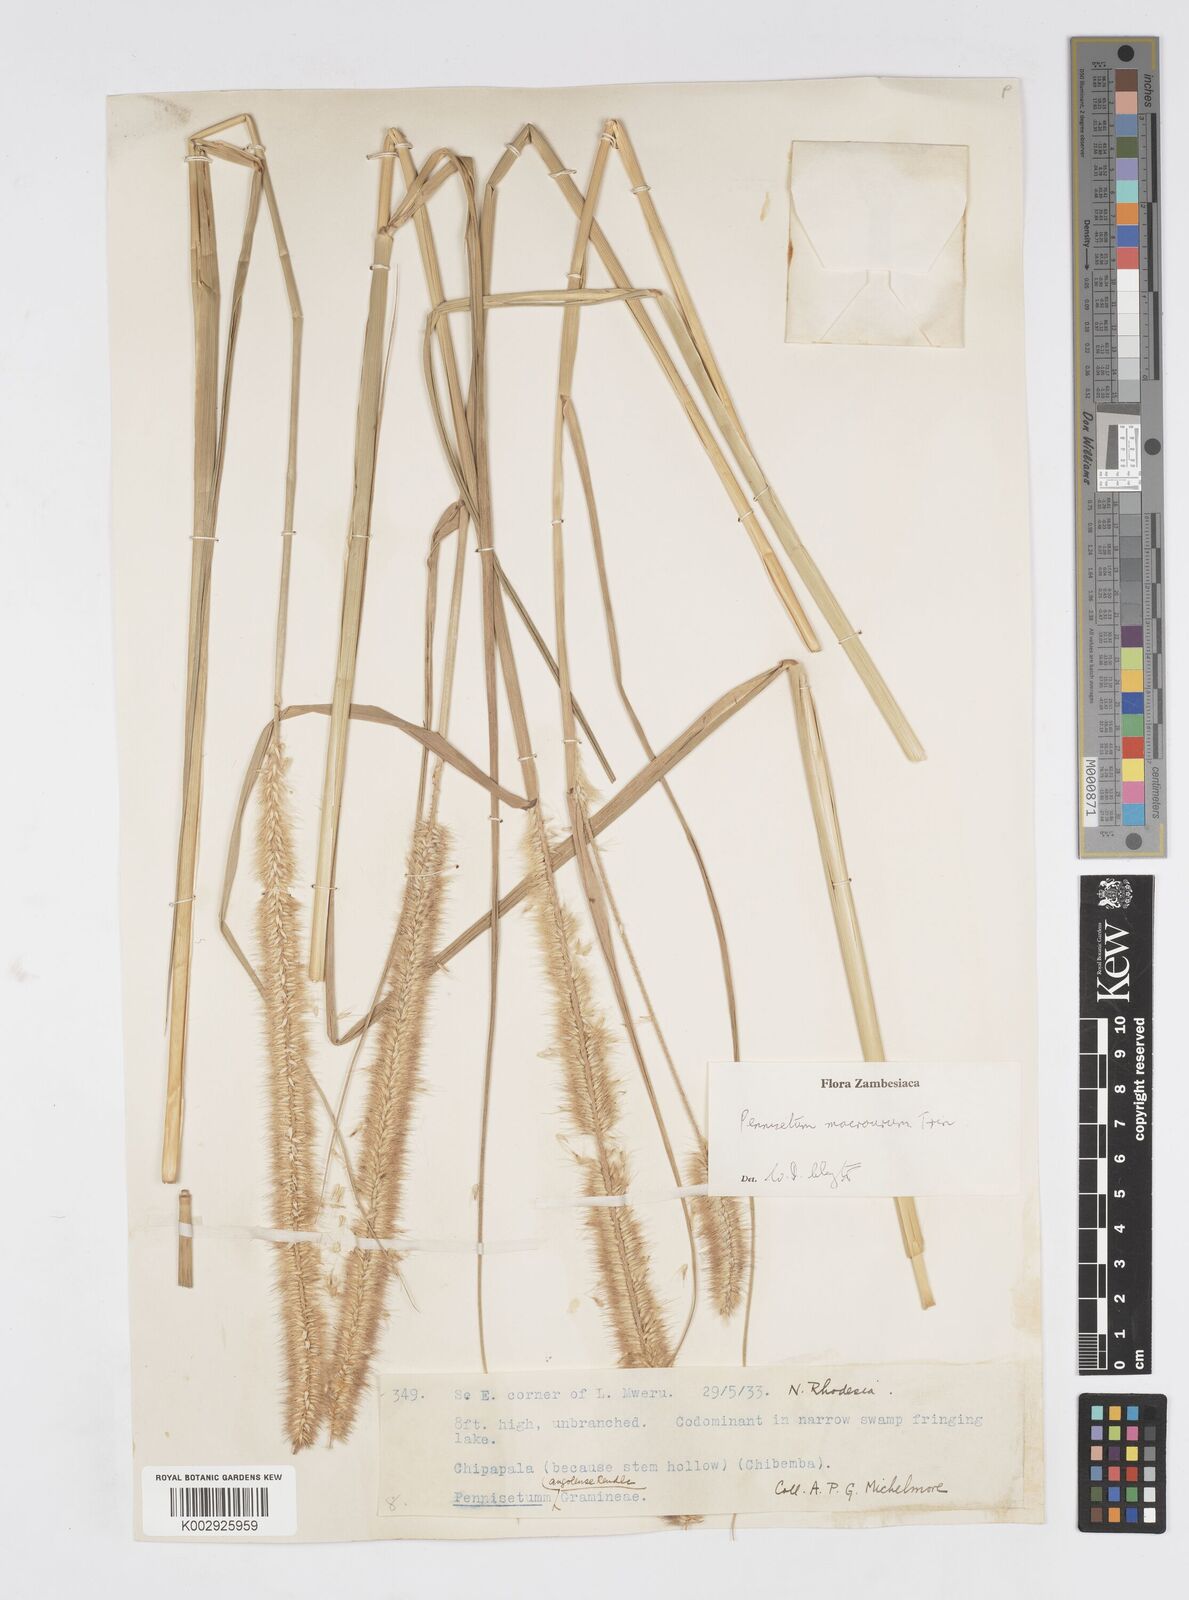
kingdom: Plantae
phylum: Tracheophyta
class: Liliopsida
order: Poales
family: Poaceae
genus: Cenchrus
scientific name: Cenchrus caudatus
